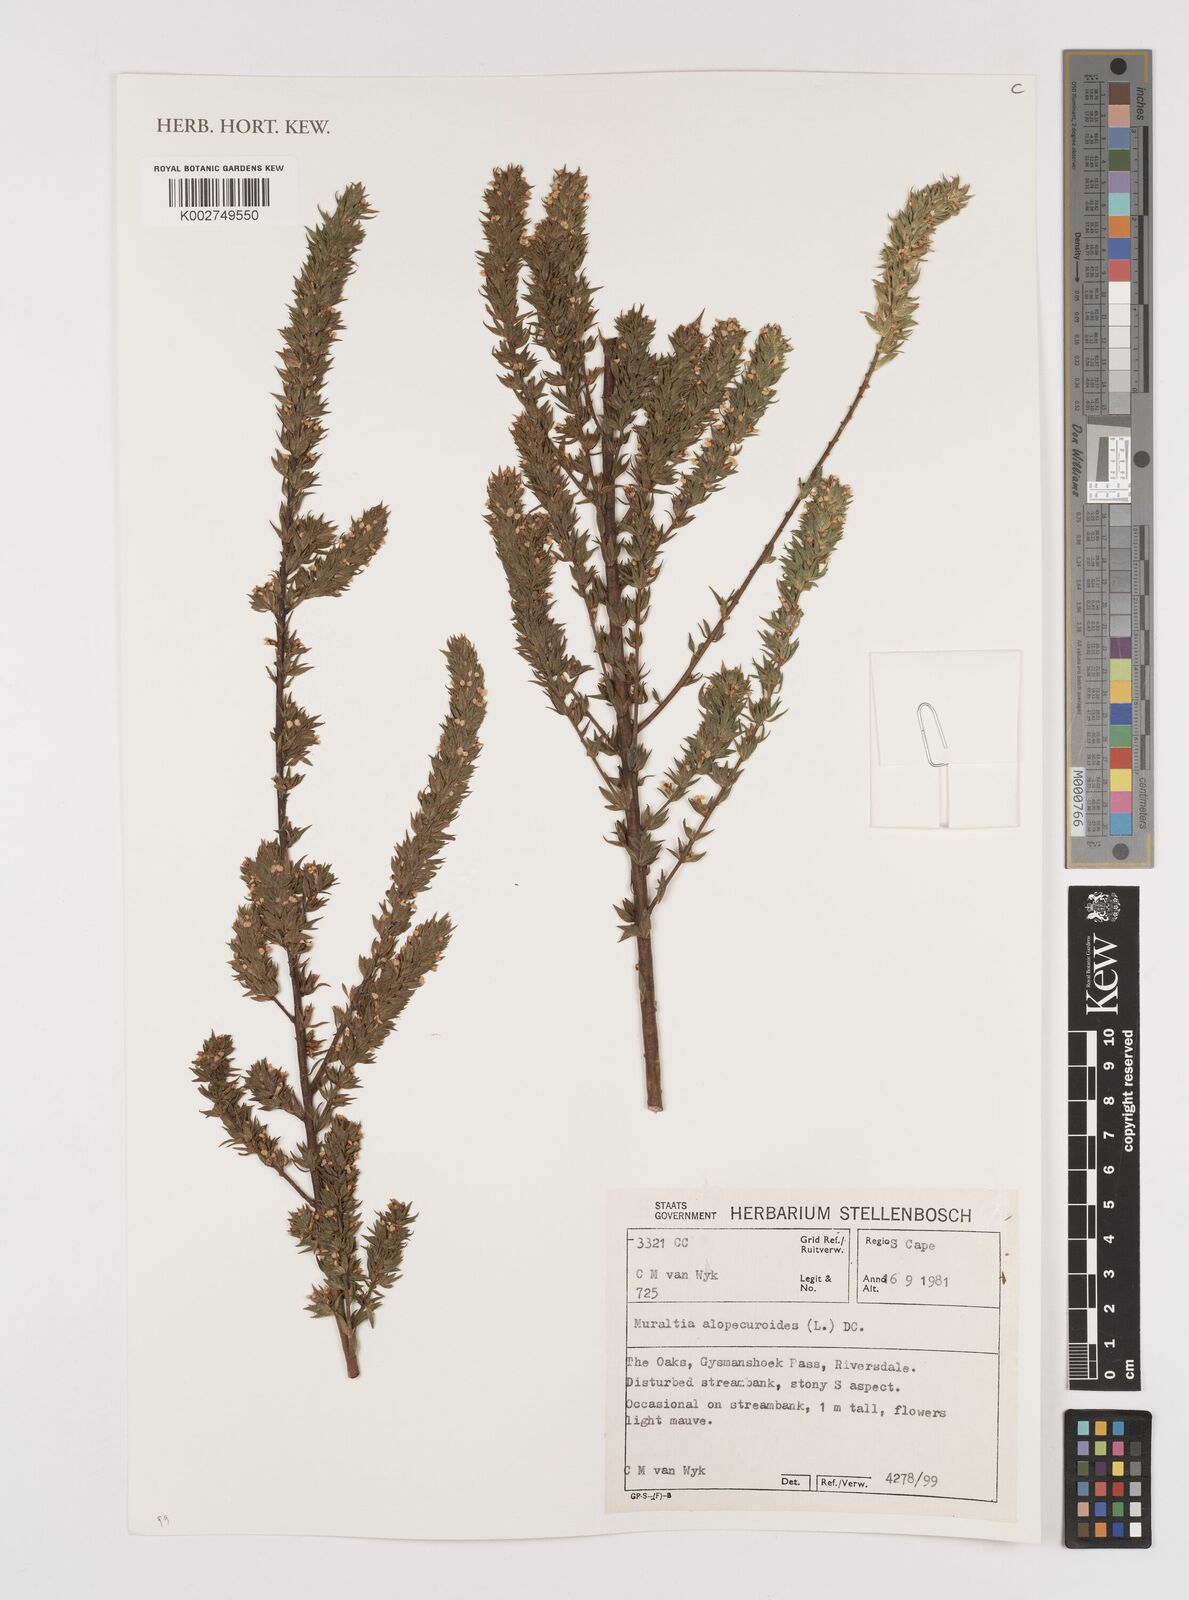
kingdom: Plantae
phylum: Tracheophyta
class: Magnoliopsida
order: Fabales
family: Polygalaceae
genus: Muraltia
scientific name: Muraltia alopecuroides
